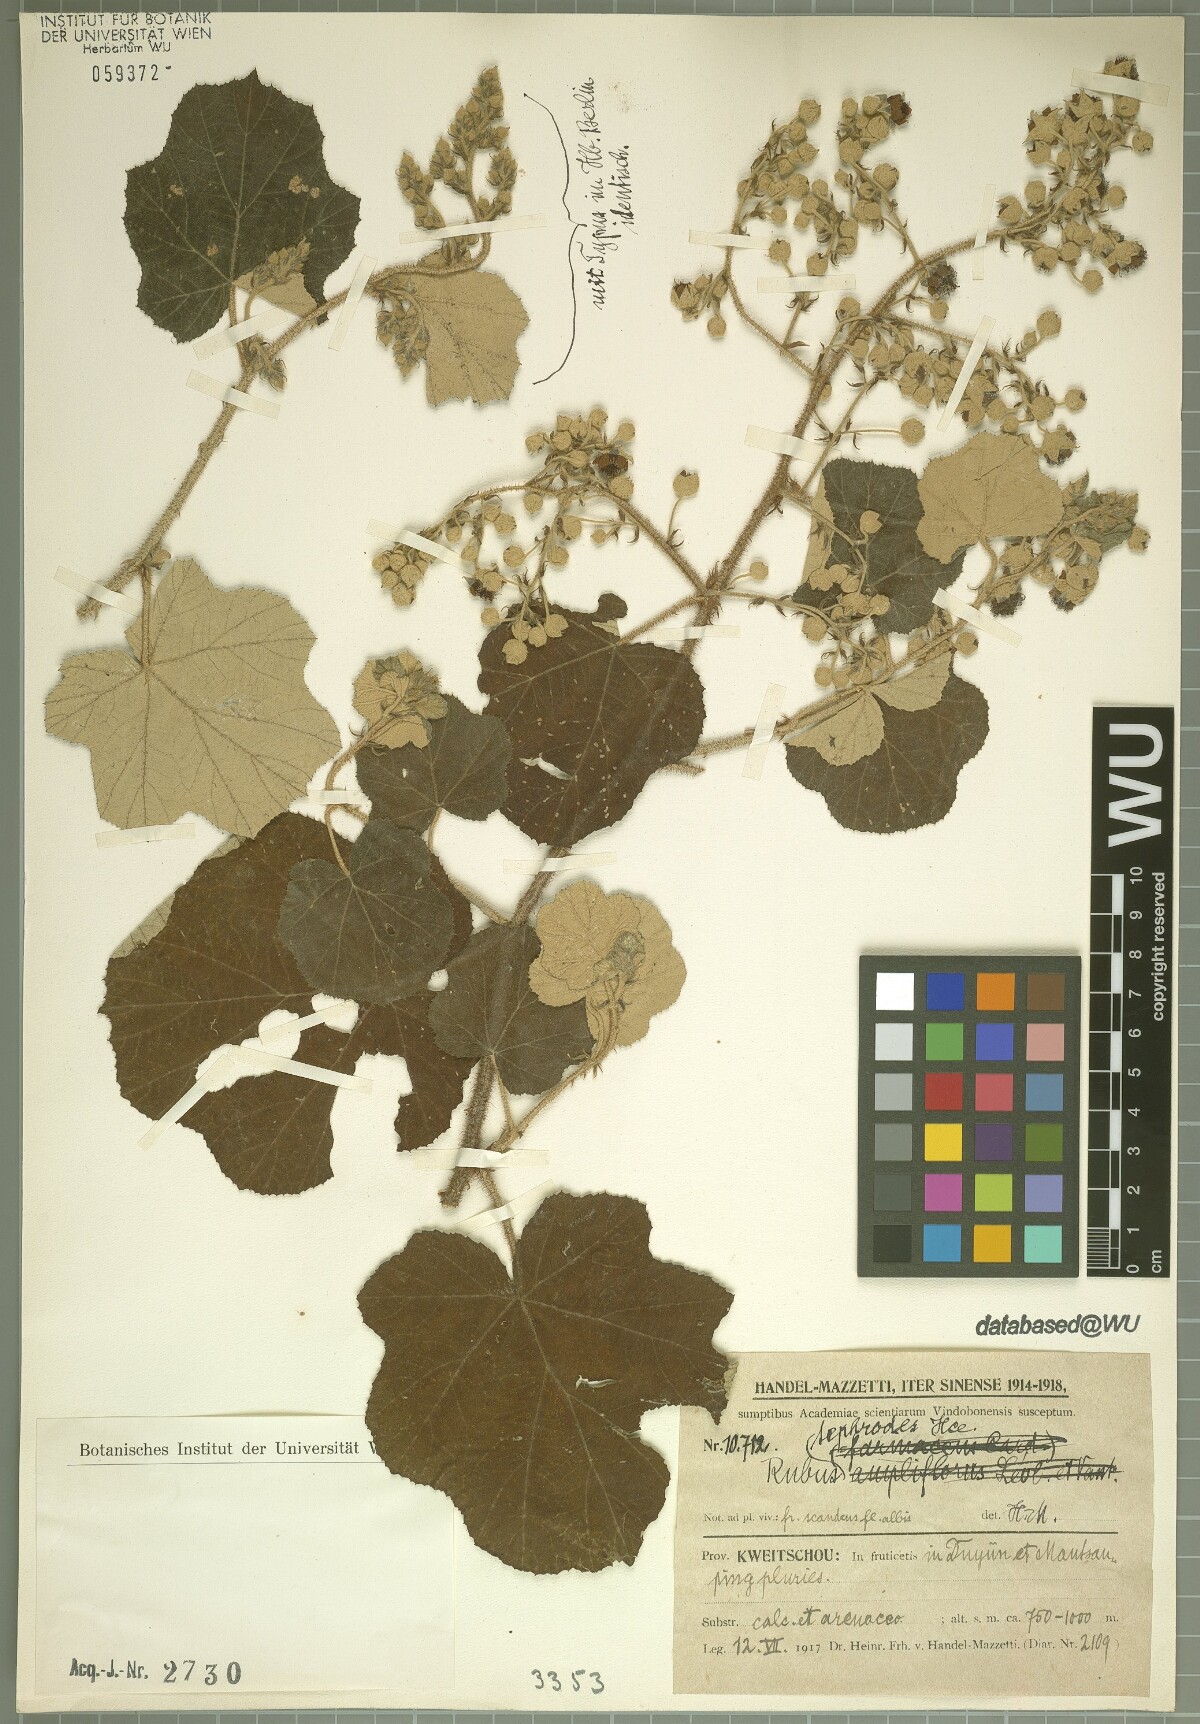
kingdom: Plantae
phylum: Tracheophyta
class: Magnoliopsida
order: Rosales
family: Rosaceae
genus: Rubus
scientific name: Rubus tephrodes
